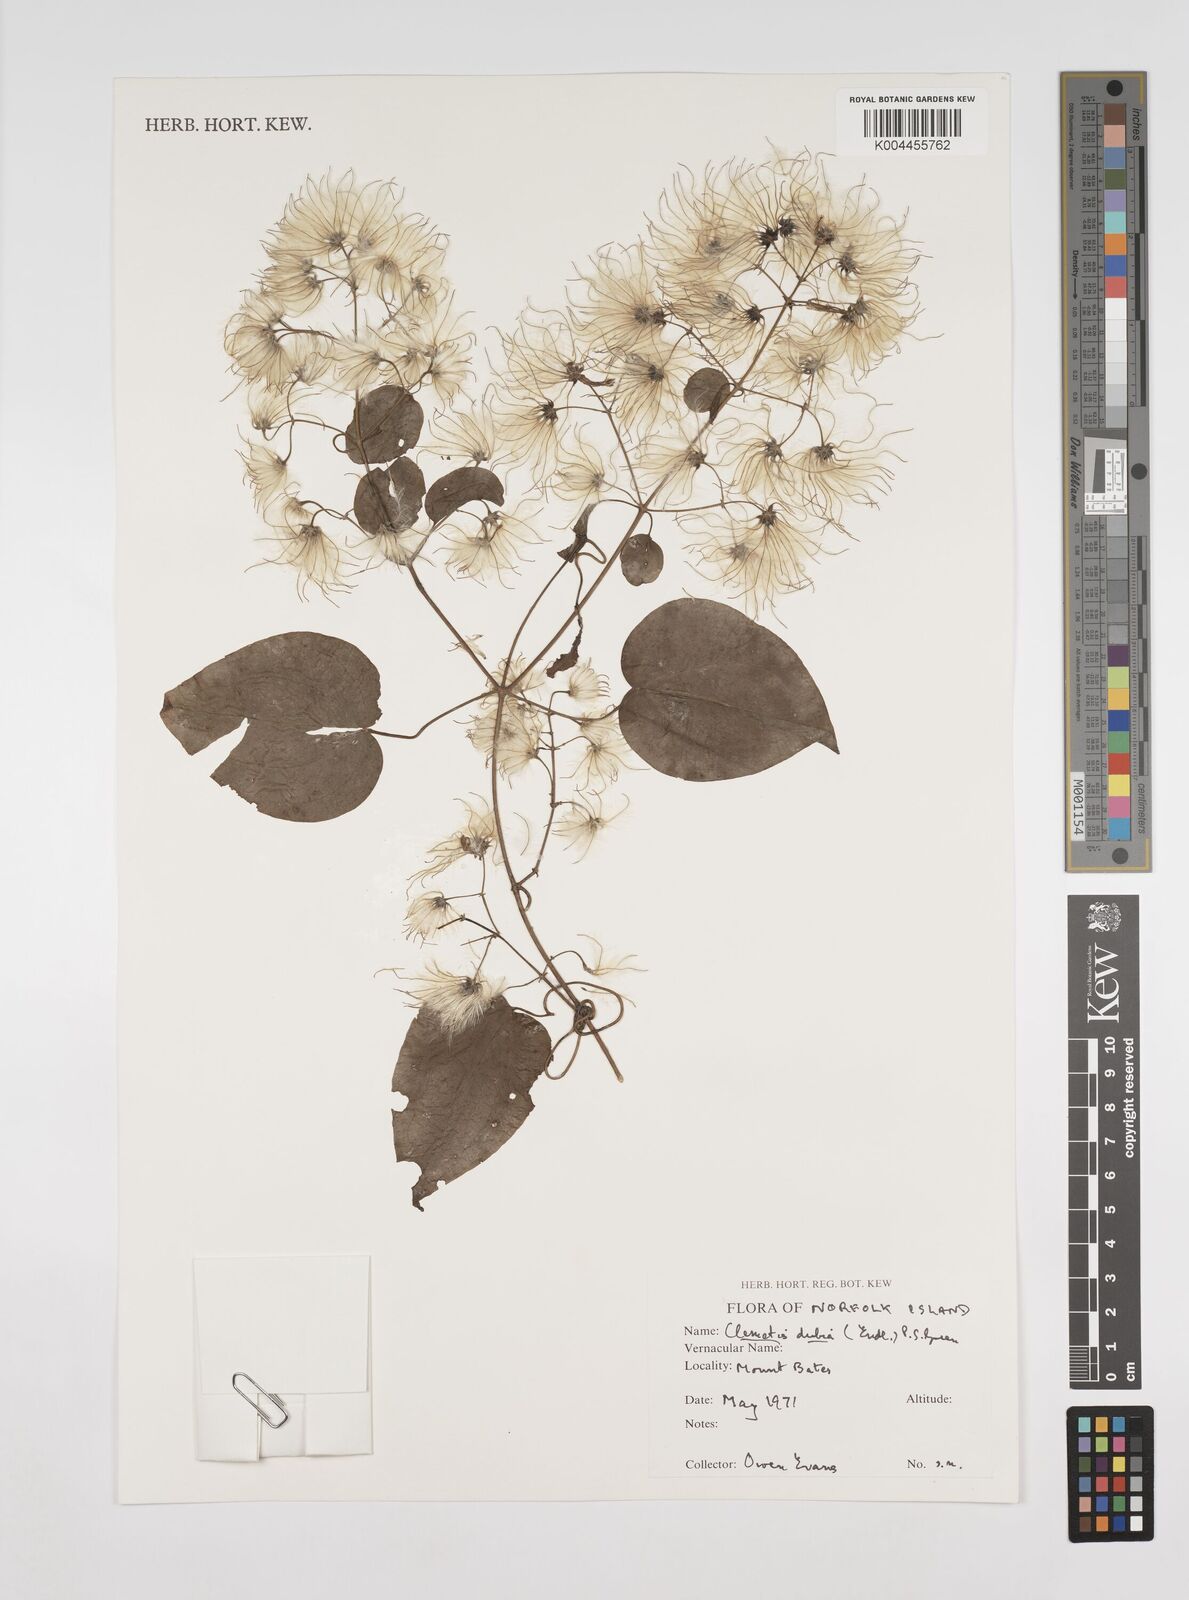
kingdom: Plantae
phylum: Tracheophyta
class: Magnoliopsida
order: Ranunculales
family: Ranunculaceae
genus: Clematis
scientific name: Clematis dubia
